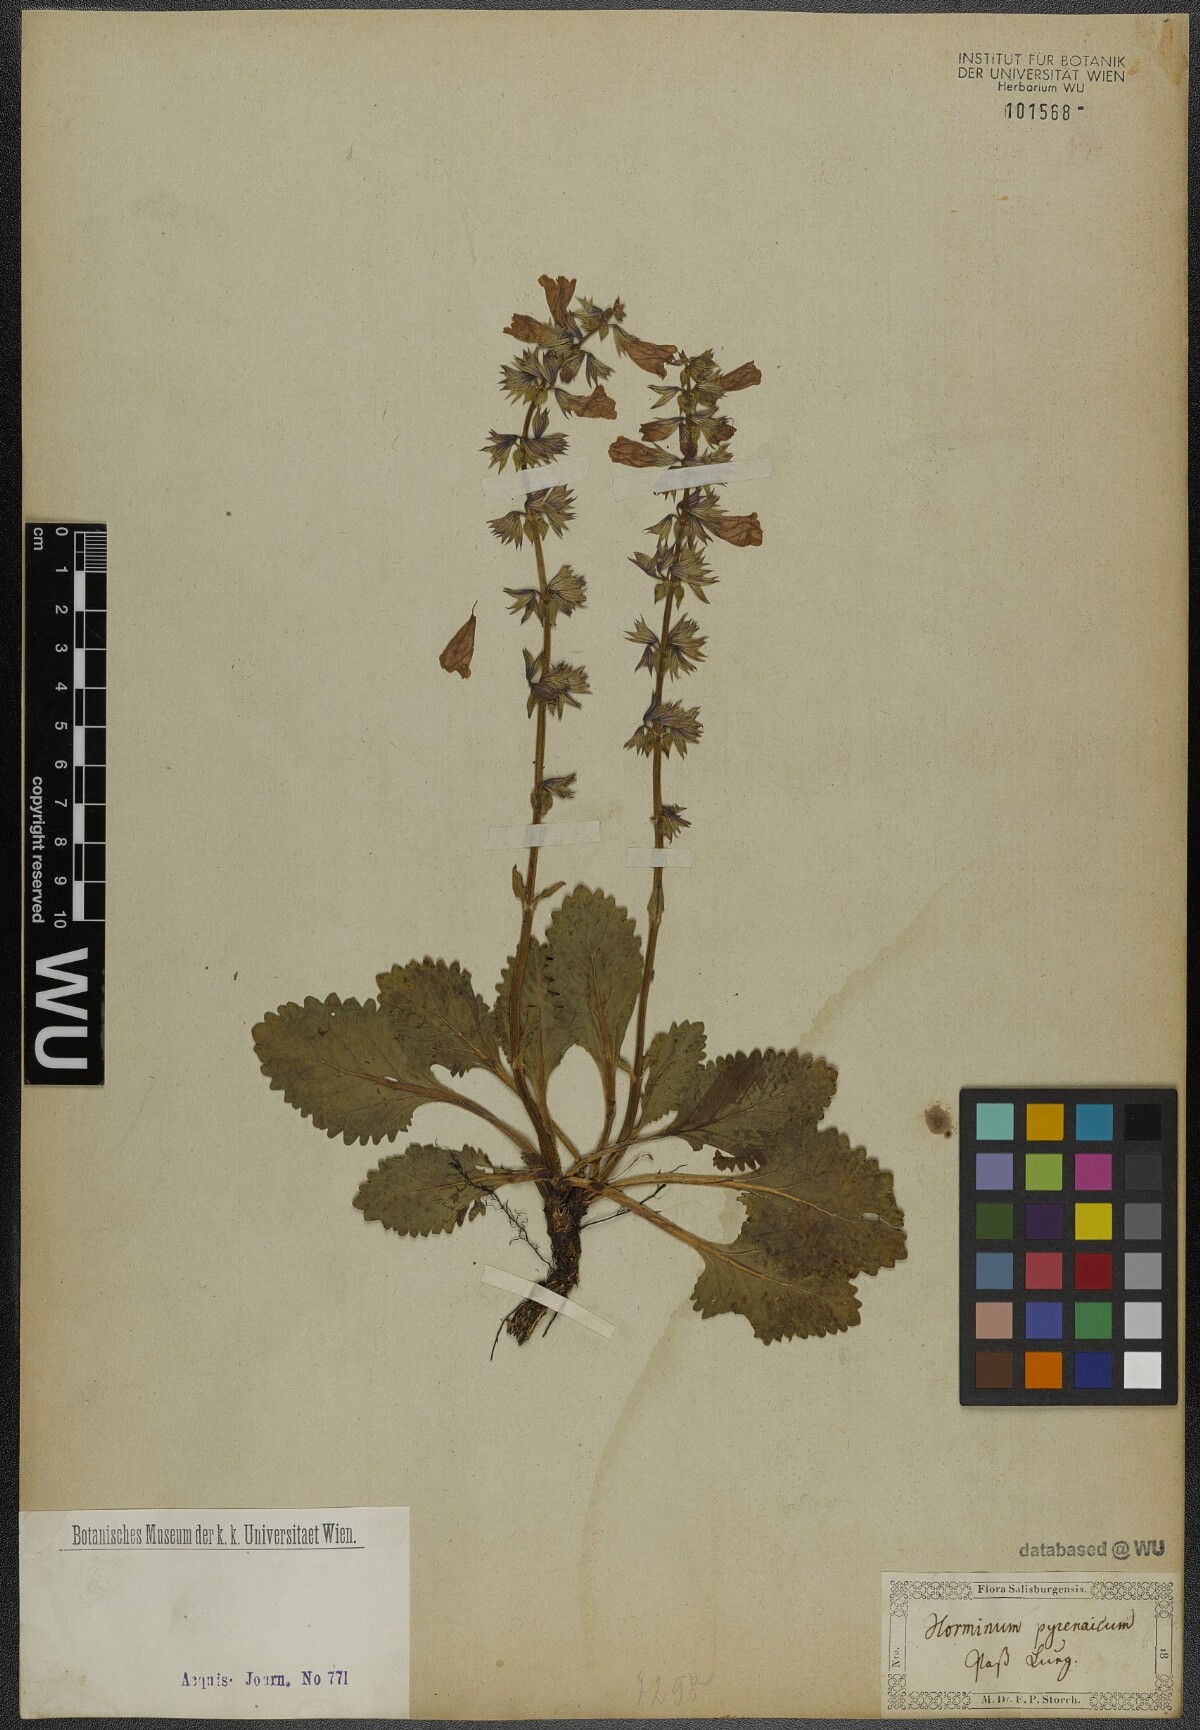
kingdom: Plantae
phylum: Tracheophyta
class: Magnoliopsida
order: Lamiales
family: Lamiaceae
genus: Horminum
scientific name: Horminum pyrenaicum
